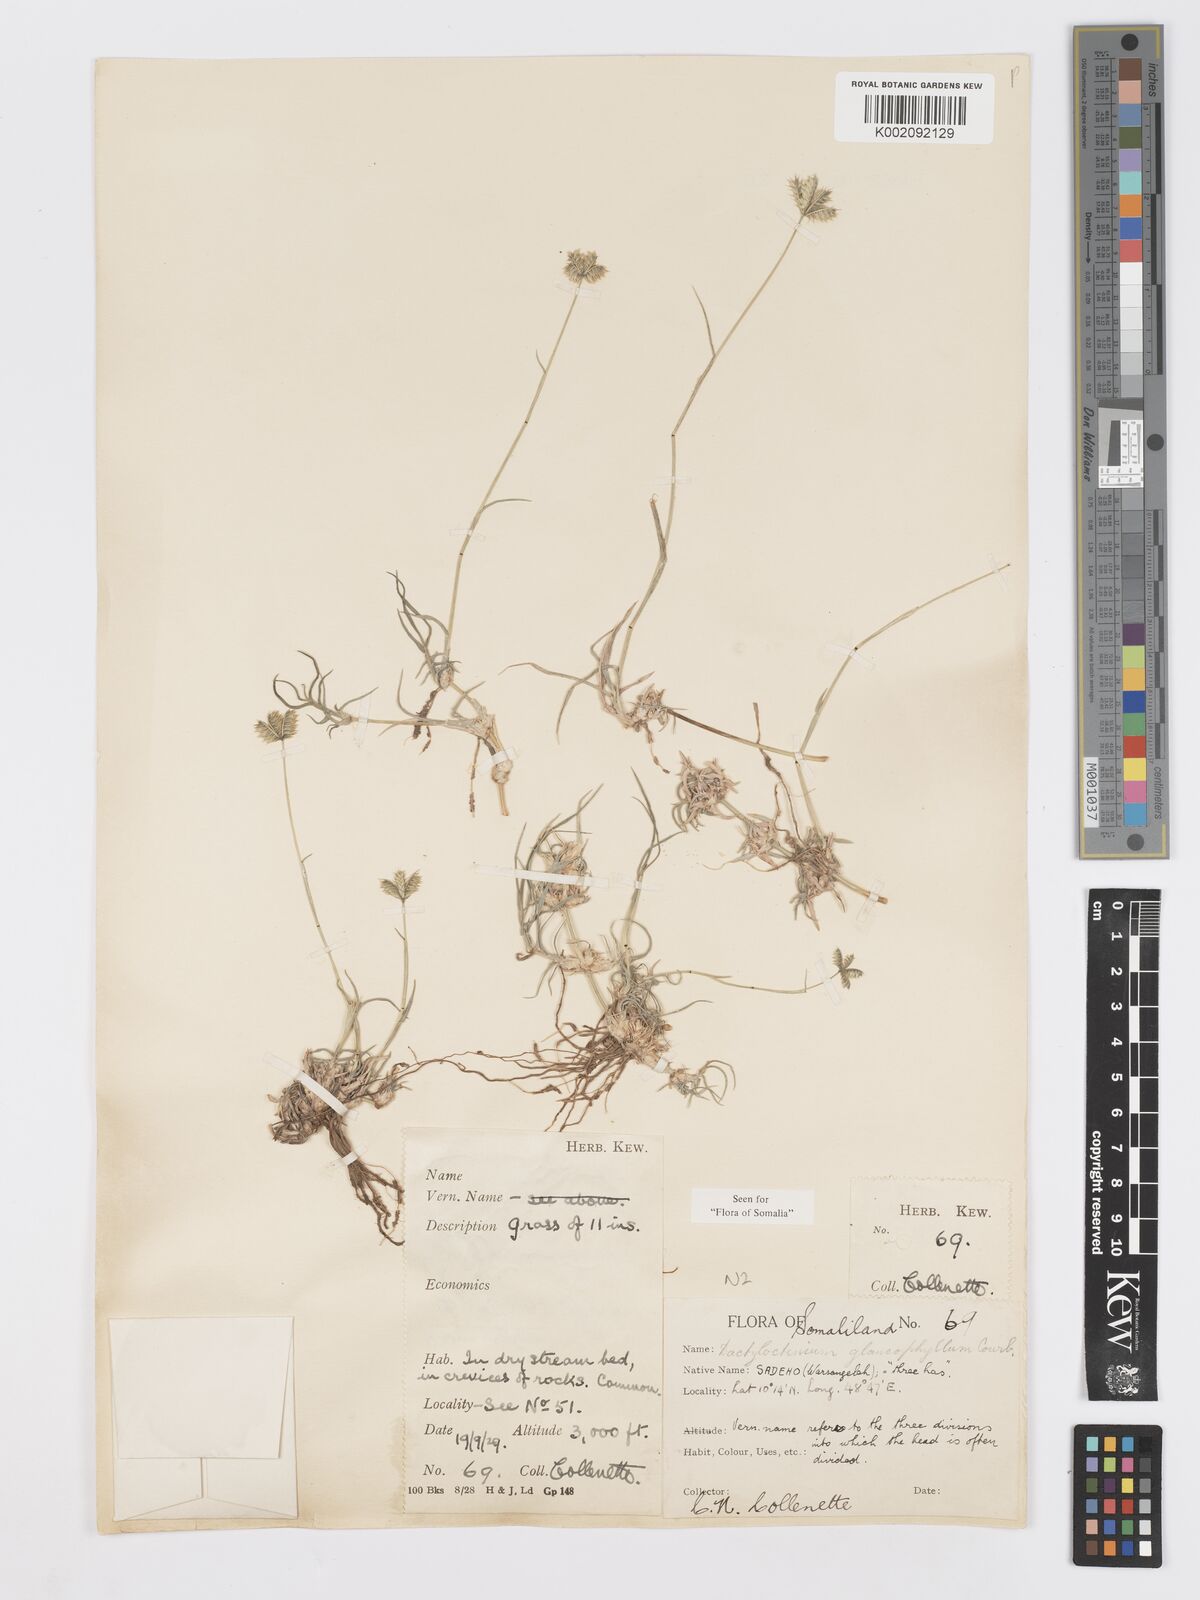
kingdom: Plantae
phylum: Tracheophyta
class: Liliopsida
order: Poales
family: Poaceae
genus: Dactyloctenium
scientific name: Dactyloctenium scindicum
